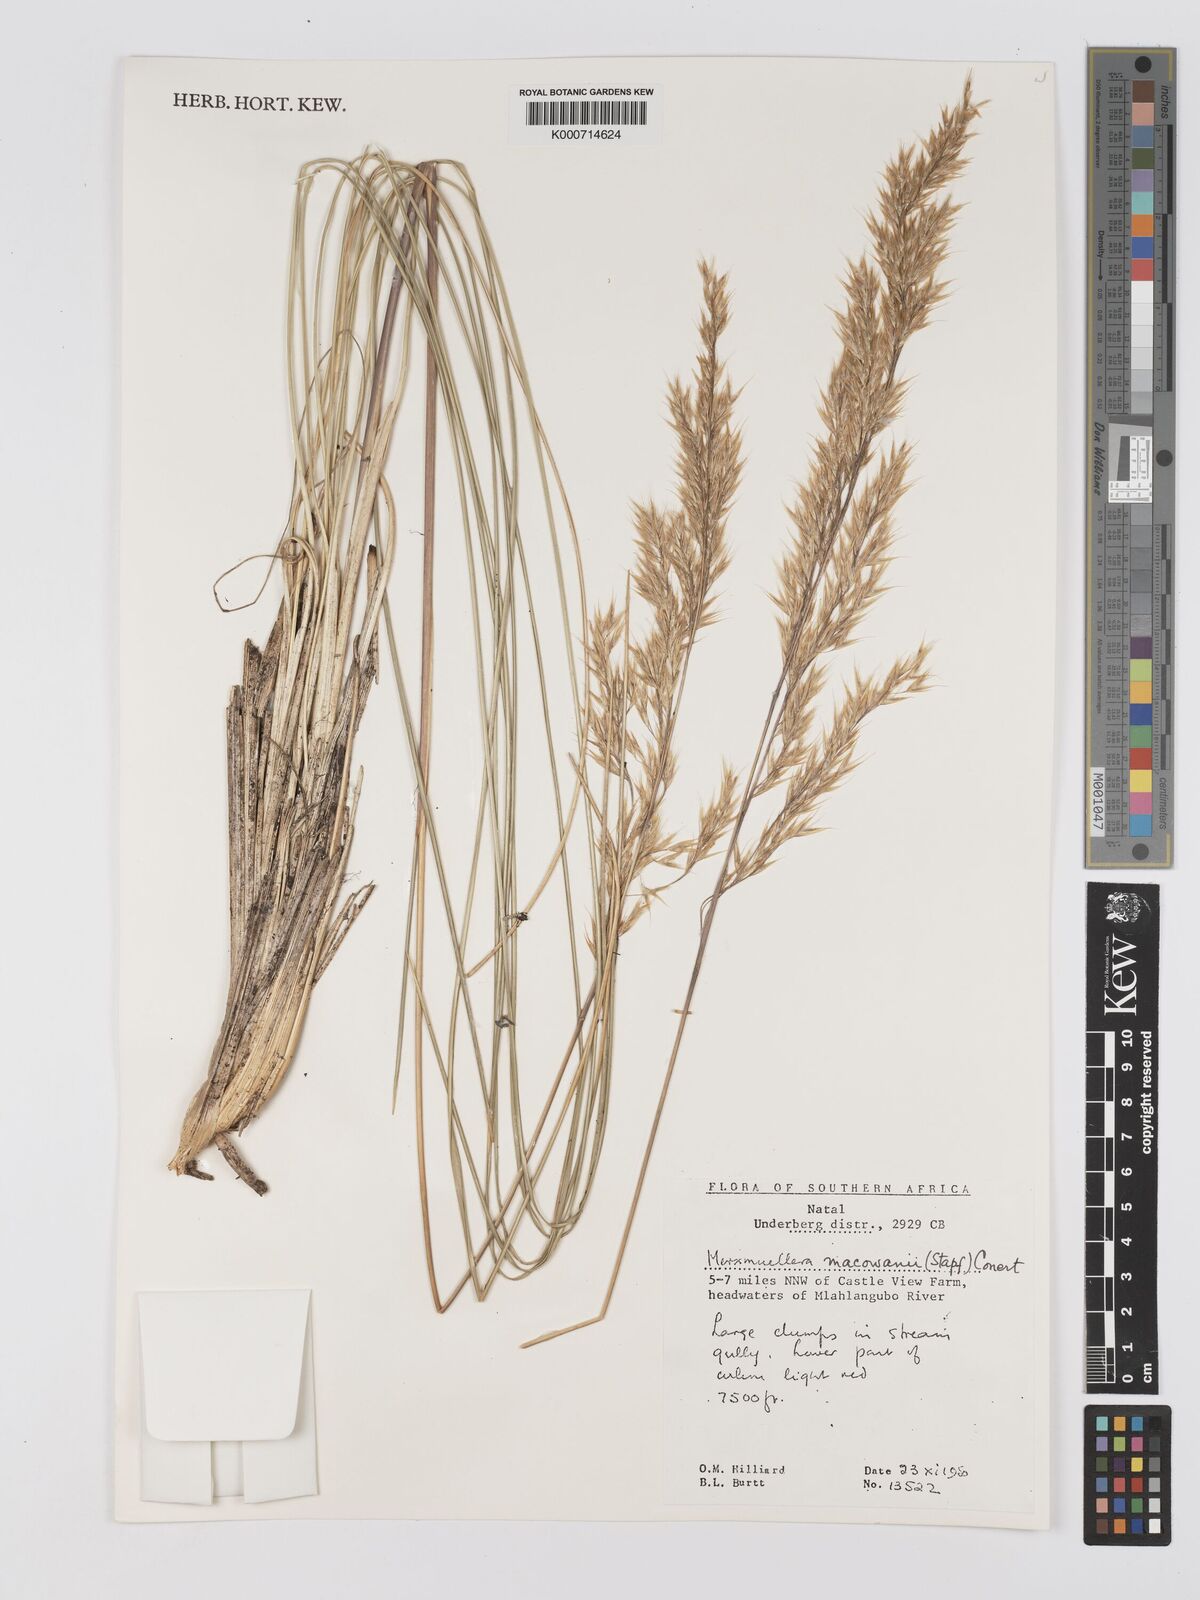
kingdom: Plantae
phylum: Tracheophyta
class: Liliopsida
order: Poales
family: Poaceae
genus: Rytidosperma
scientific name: Rytidosperma
